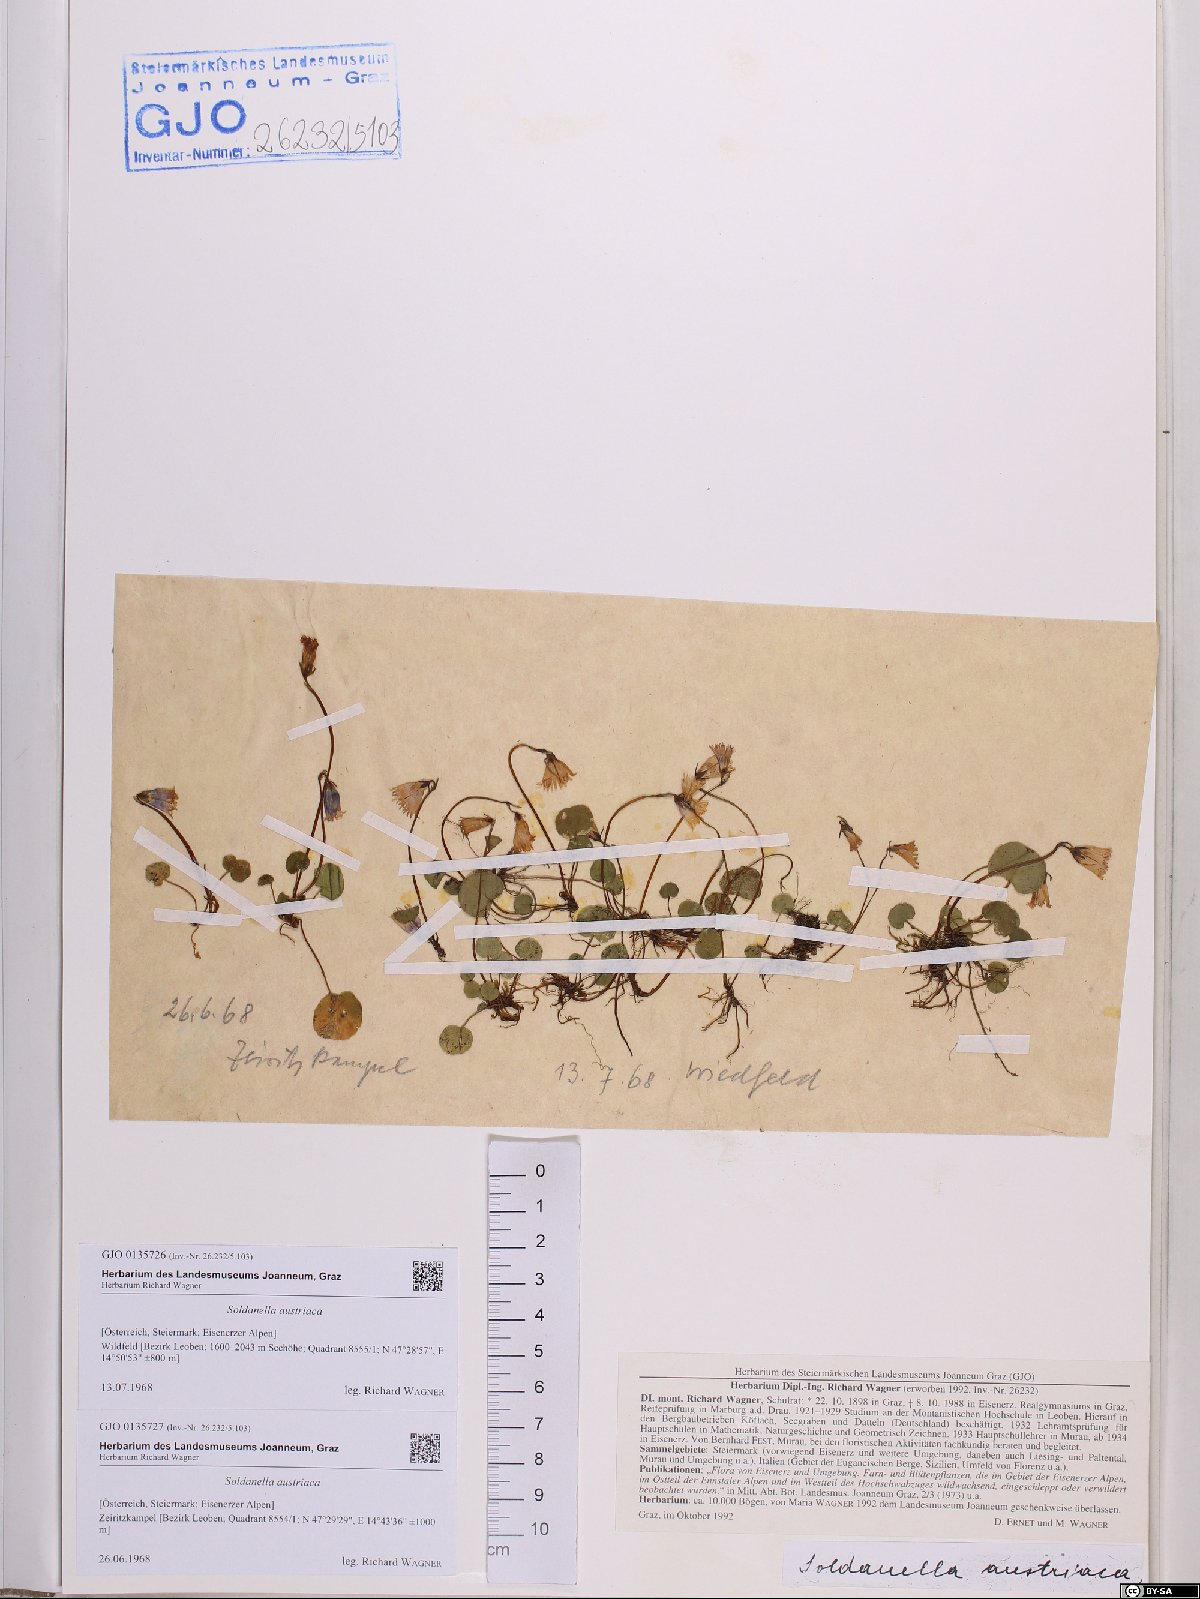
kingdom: Plantae
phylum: Tracheophyta
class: Magnoliopsida
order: Ericales
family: Primulaceae
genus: Soldanella
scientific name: Soldanella austriaca
